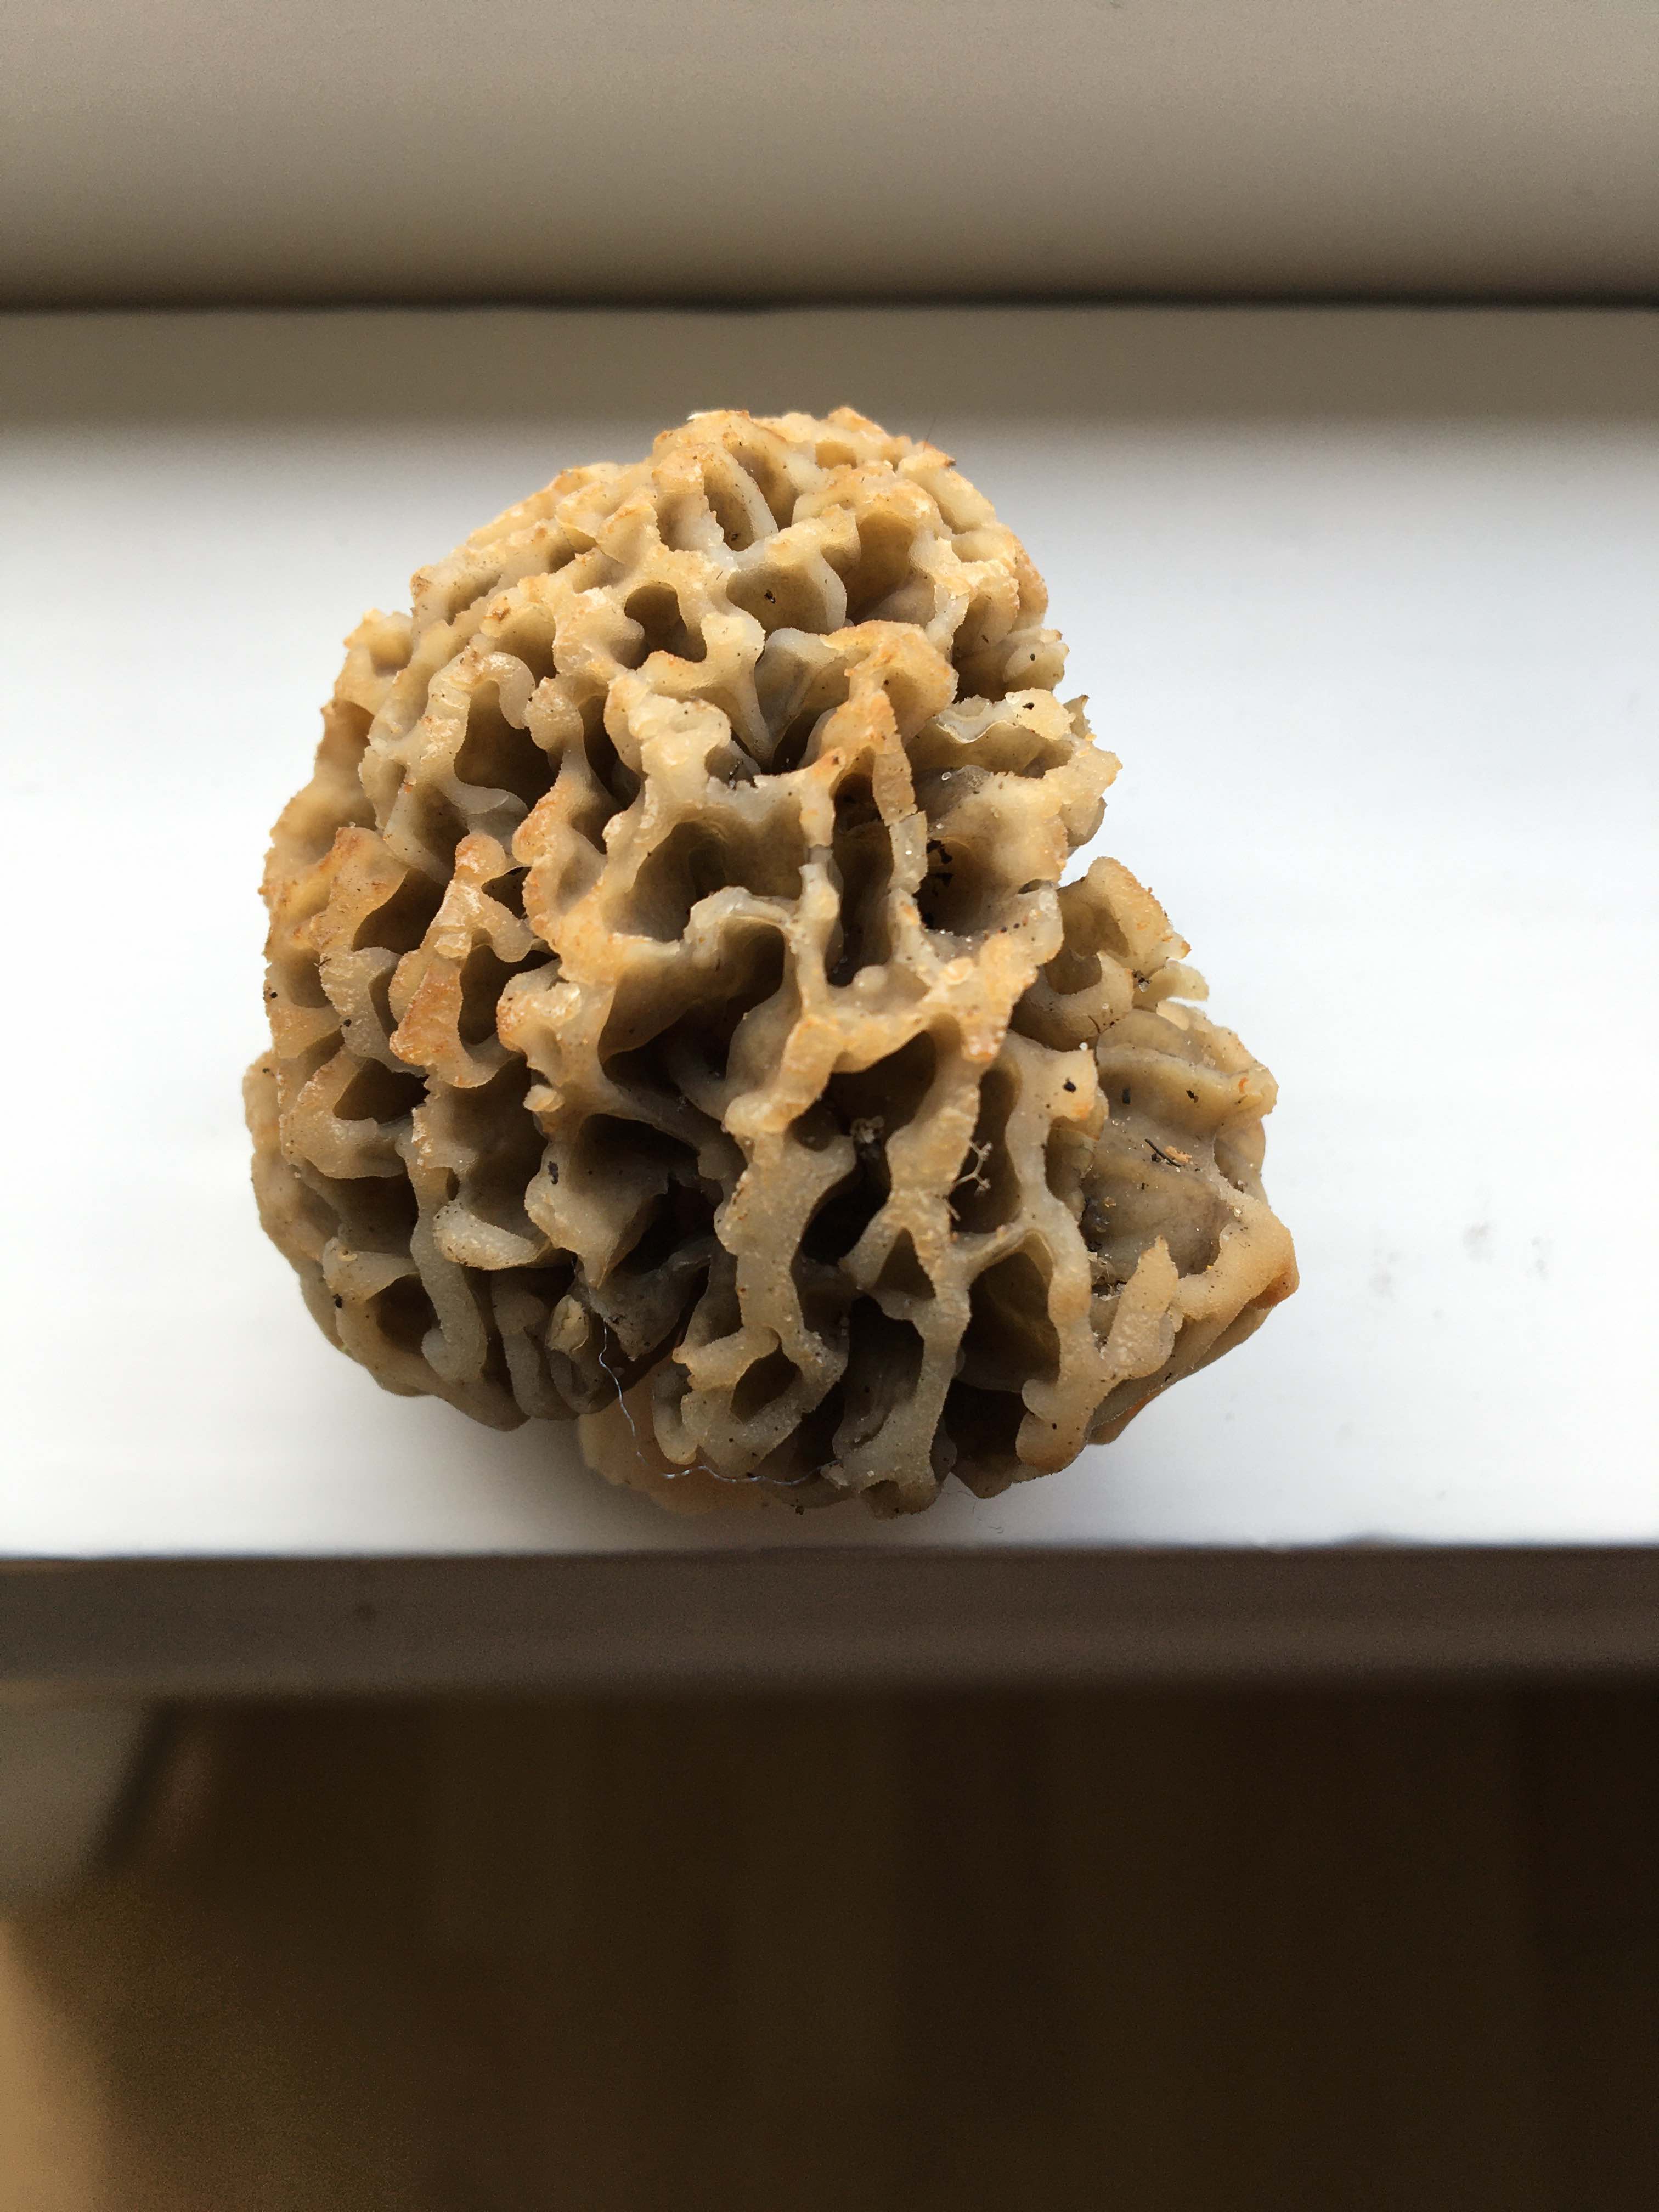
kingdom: Fungi
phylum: Ascomycota
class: Pezizomycetes
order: Pezizales
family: Morchellaceae
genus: Morchella
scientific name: Morchella esculenta
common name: almindelig morkel
